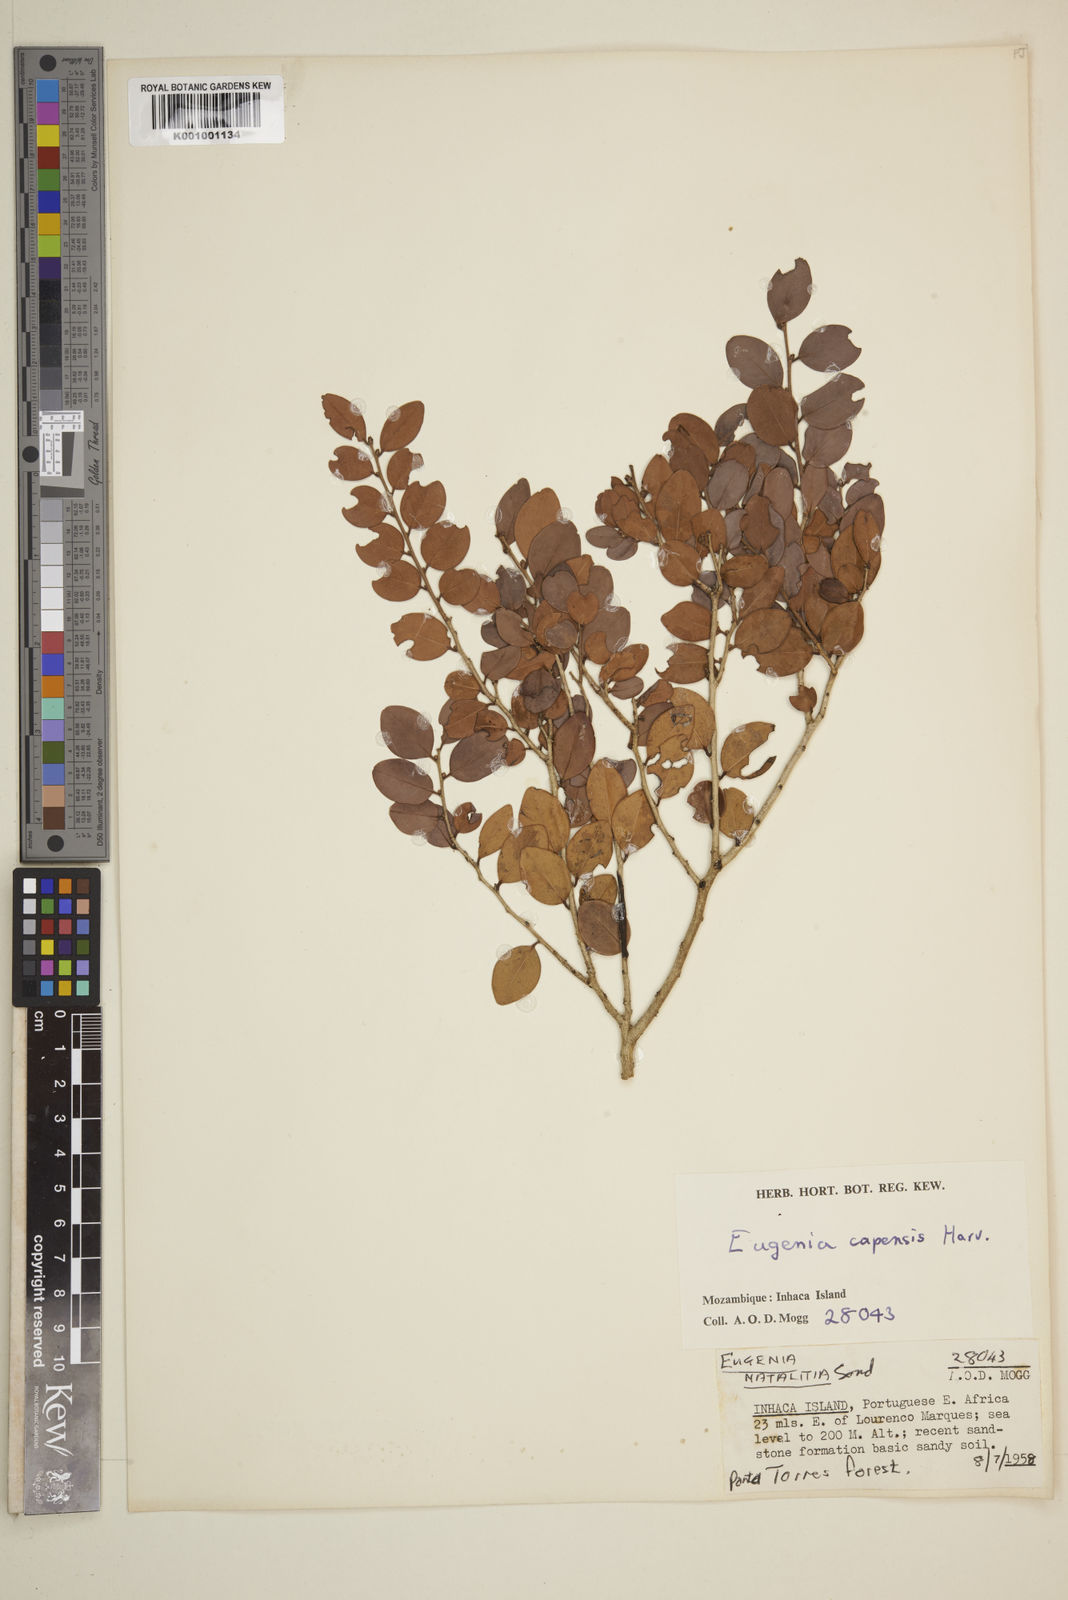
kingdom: Plantae
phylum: Tracheophyta
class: Magnoliopsida
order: Myrtales
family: Myrtaceae
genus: Eugenia
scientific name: Eugenia capensis
